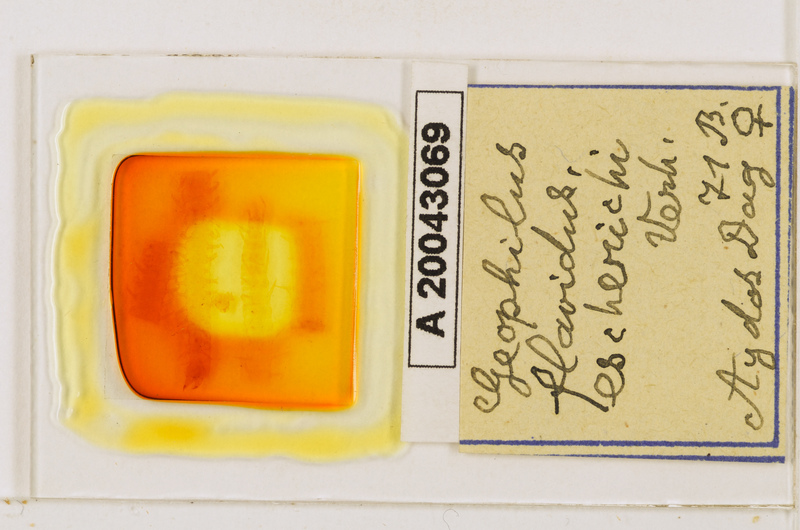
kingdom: Animalia
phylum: Arthropoda
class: Chilopoda
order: Geophilomorpha
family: Geophilidae
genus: Clinopodes
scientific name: Clinopodes flavidus
